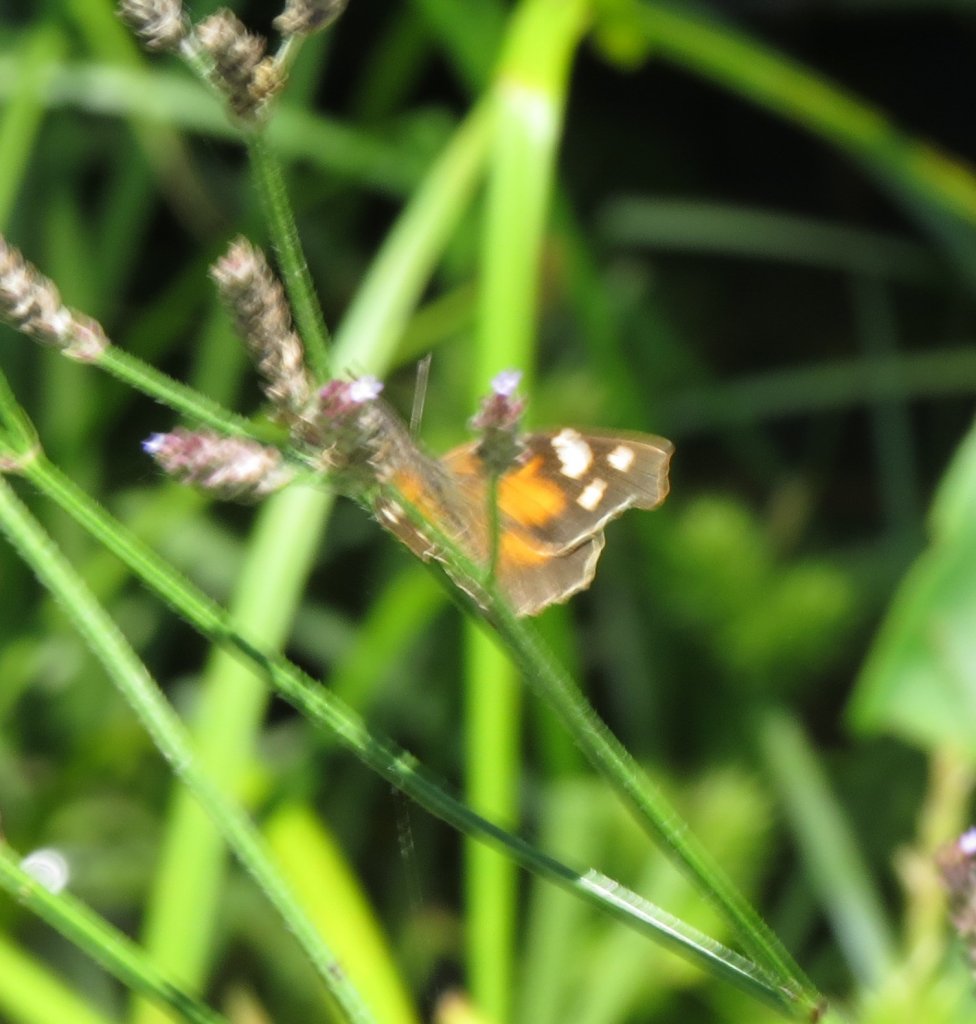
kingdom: Animalia
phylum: Arthropoda
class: Insecta
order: Lepidoptera
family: Nymphalidae
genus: Libytheana
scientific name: Libytheana carinenta
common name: American Snout
